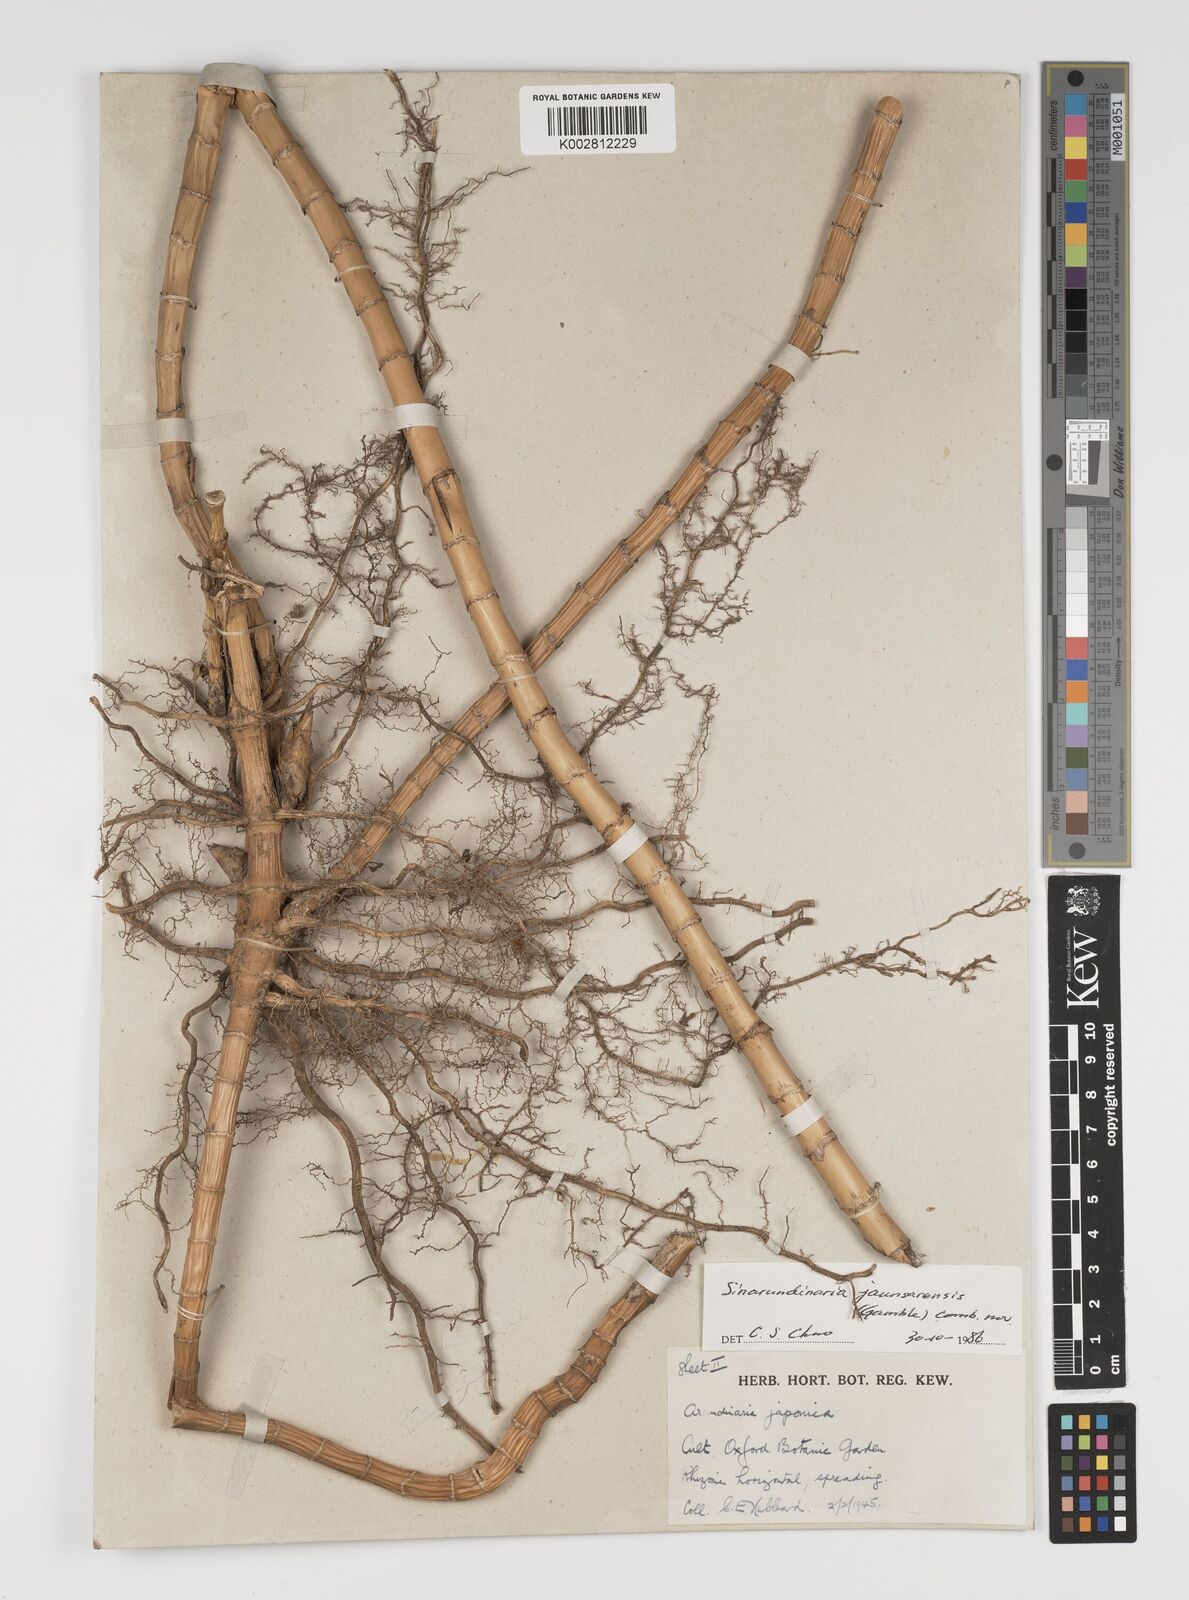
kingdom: Plantae
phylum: Tracheophyta
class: Liliopsida
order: Poales
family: Poaceae
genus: Yushania
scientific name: Yushania anceps
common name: Indian fountain-bamboo
